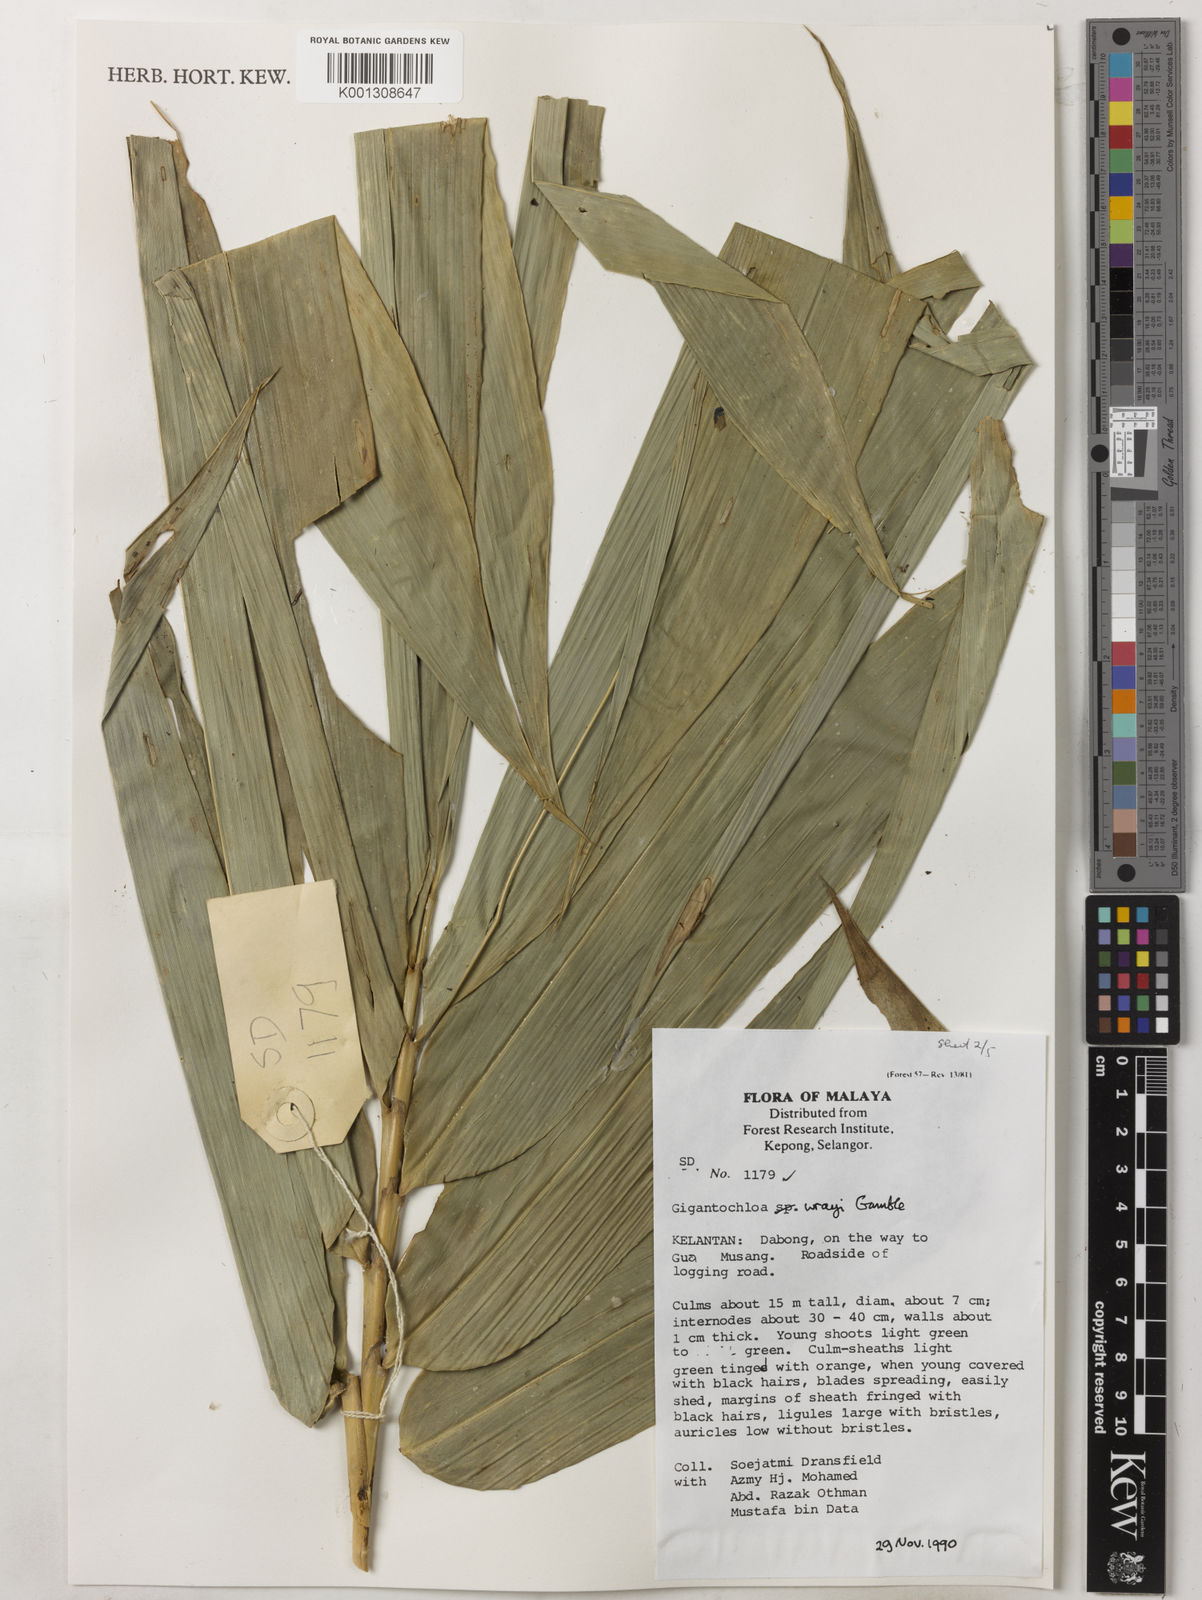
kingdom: Plantae
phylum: Tracheophyta
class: Liliopsida
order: Poales
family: Poaceae
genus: Gigantochloa
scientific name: Gigantochloa wrayi
